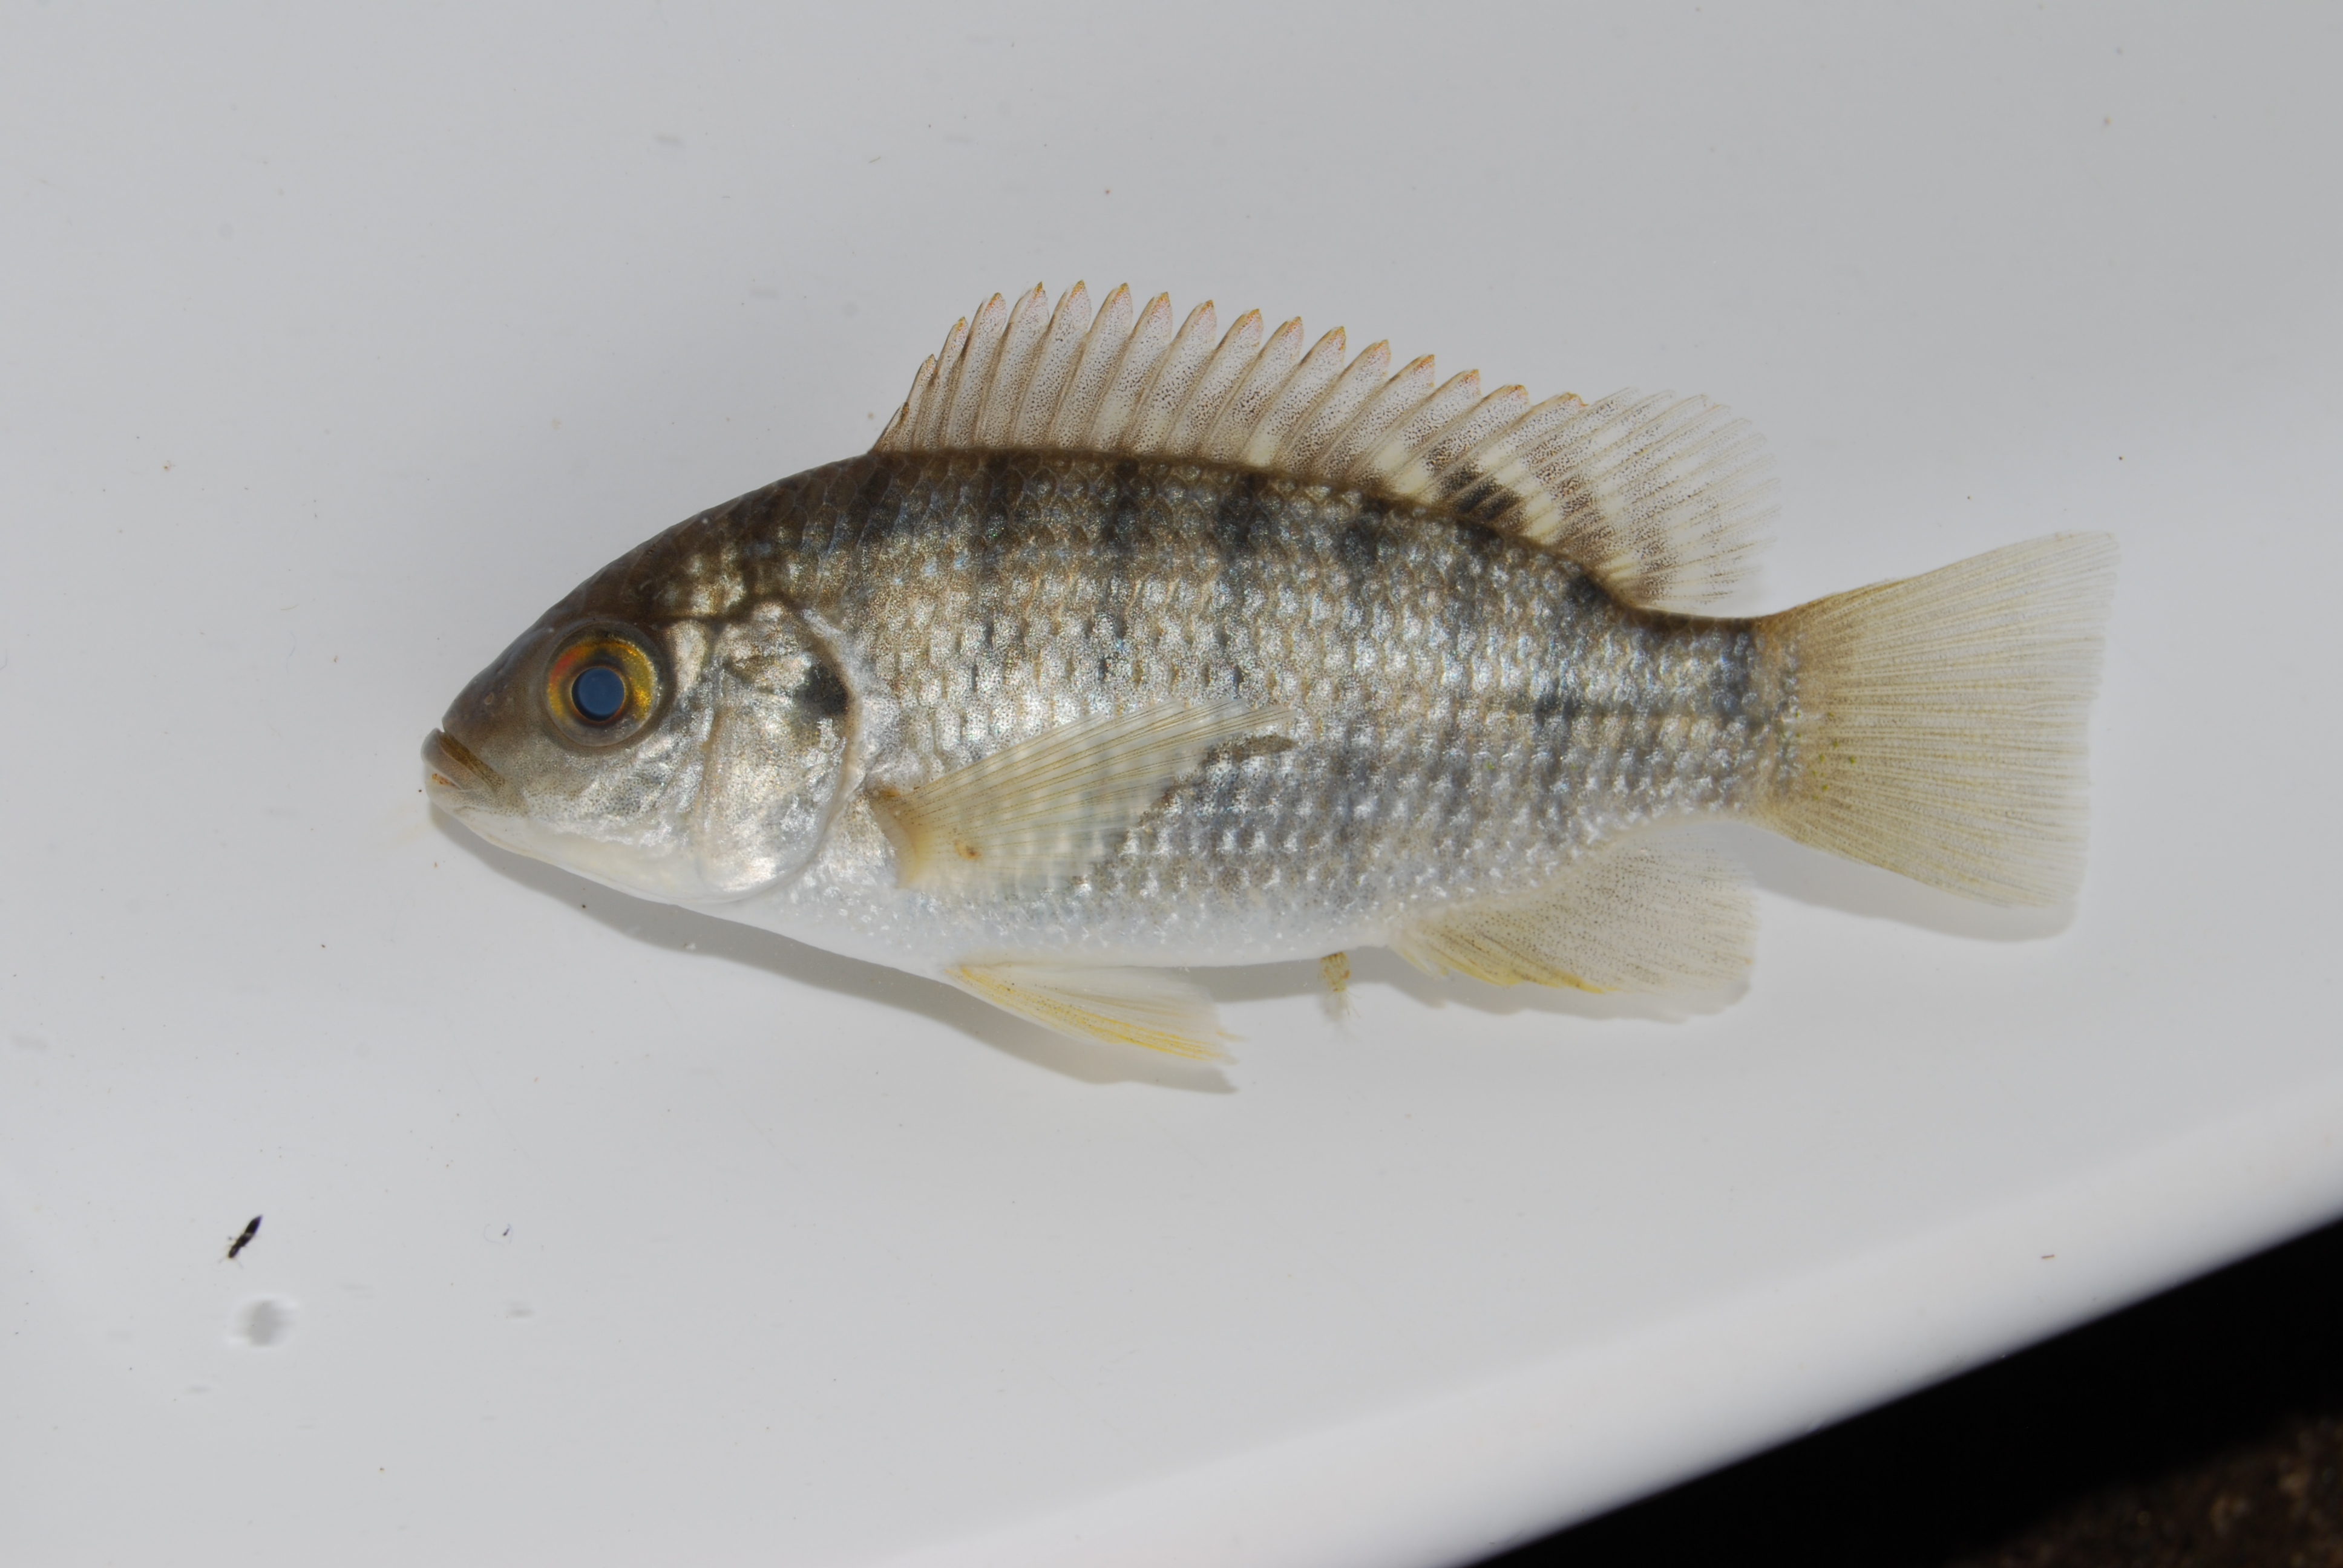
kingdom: Animalia
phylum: Chordata
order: Perciformes
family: Cichlidae
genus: Oreochromis
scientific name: Oreochromis placidus
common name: Black tilapia
